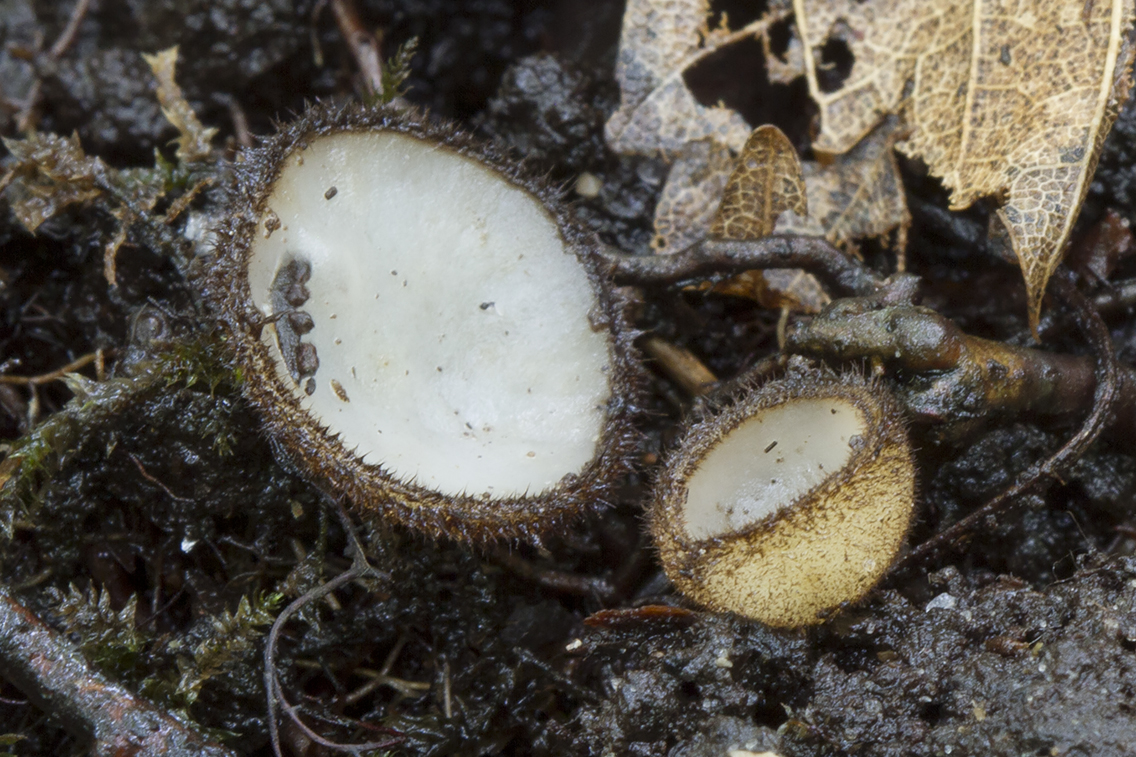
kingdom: Fungi
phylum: Ascomycota
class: Pezizomycetes
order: Pezizales
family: Pyronemataceae
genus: Humaria
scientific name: Humaria hemisphaerica
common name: halvkugleformet børstebæger
